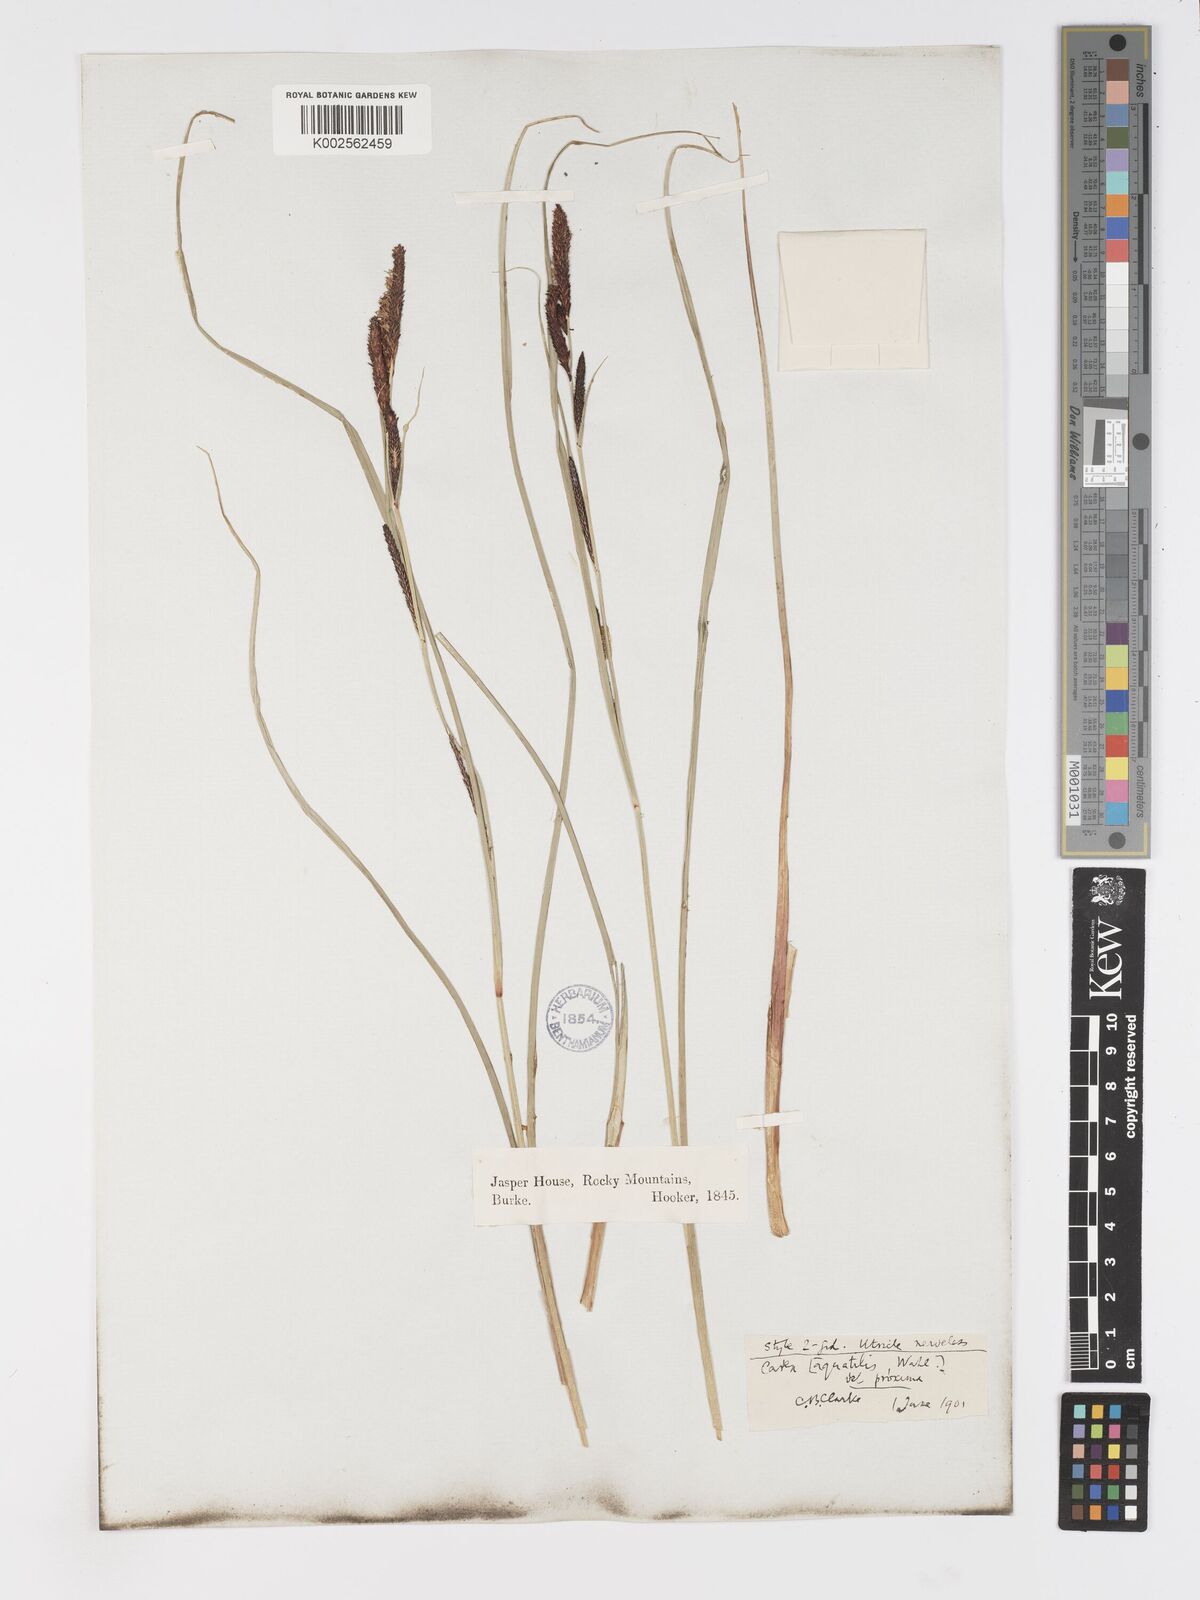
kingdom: Plantae
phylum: Tracheophyta
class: Liliopsida
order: Poales
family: Cyperaceae
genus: Carex
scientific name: Carex
